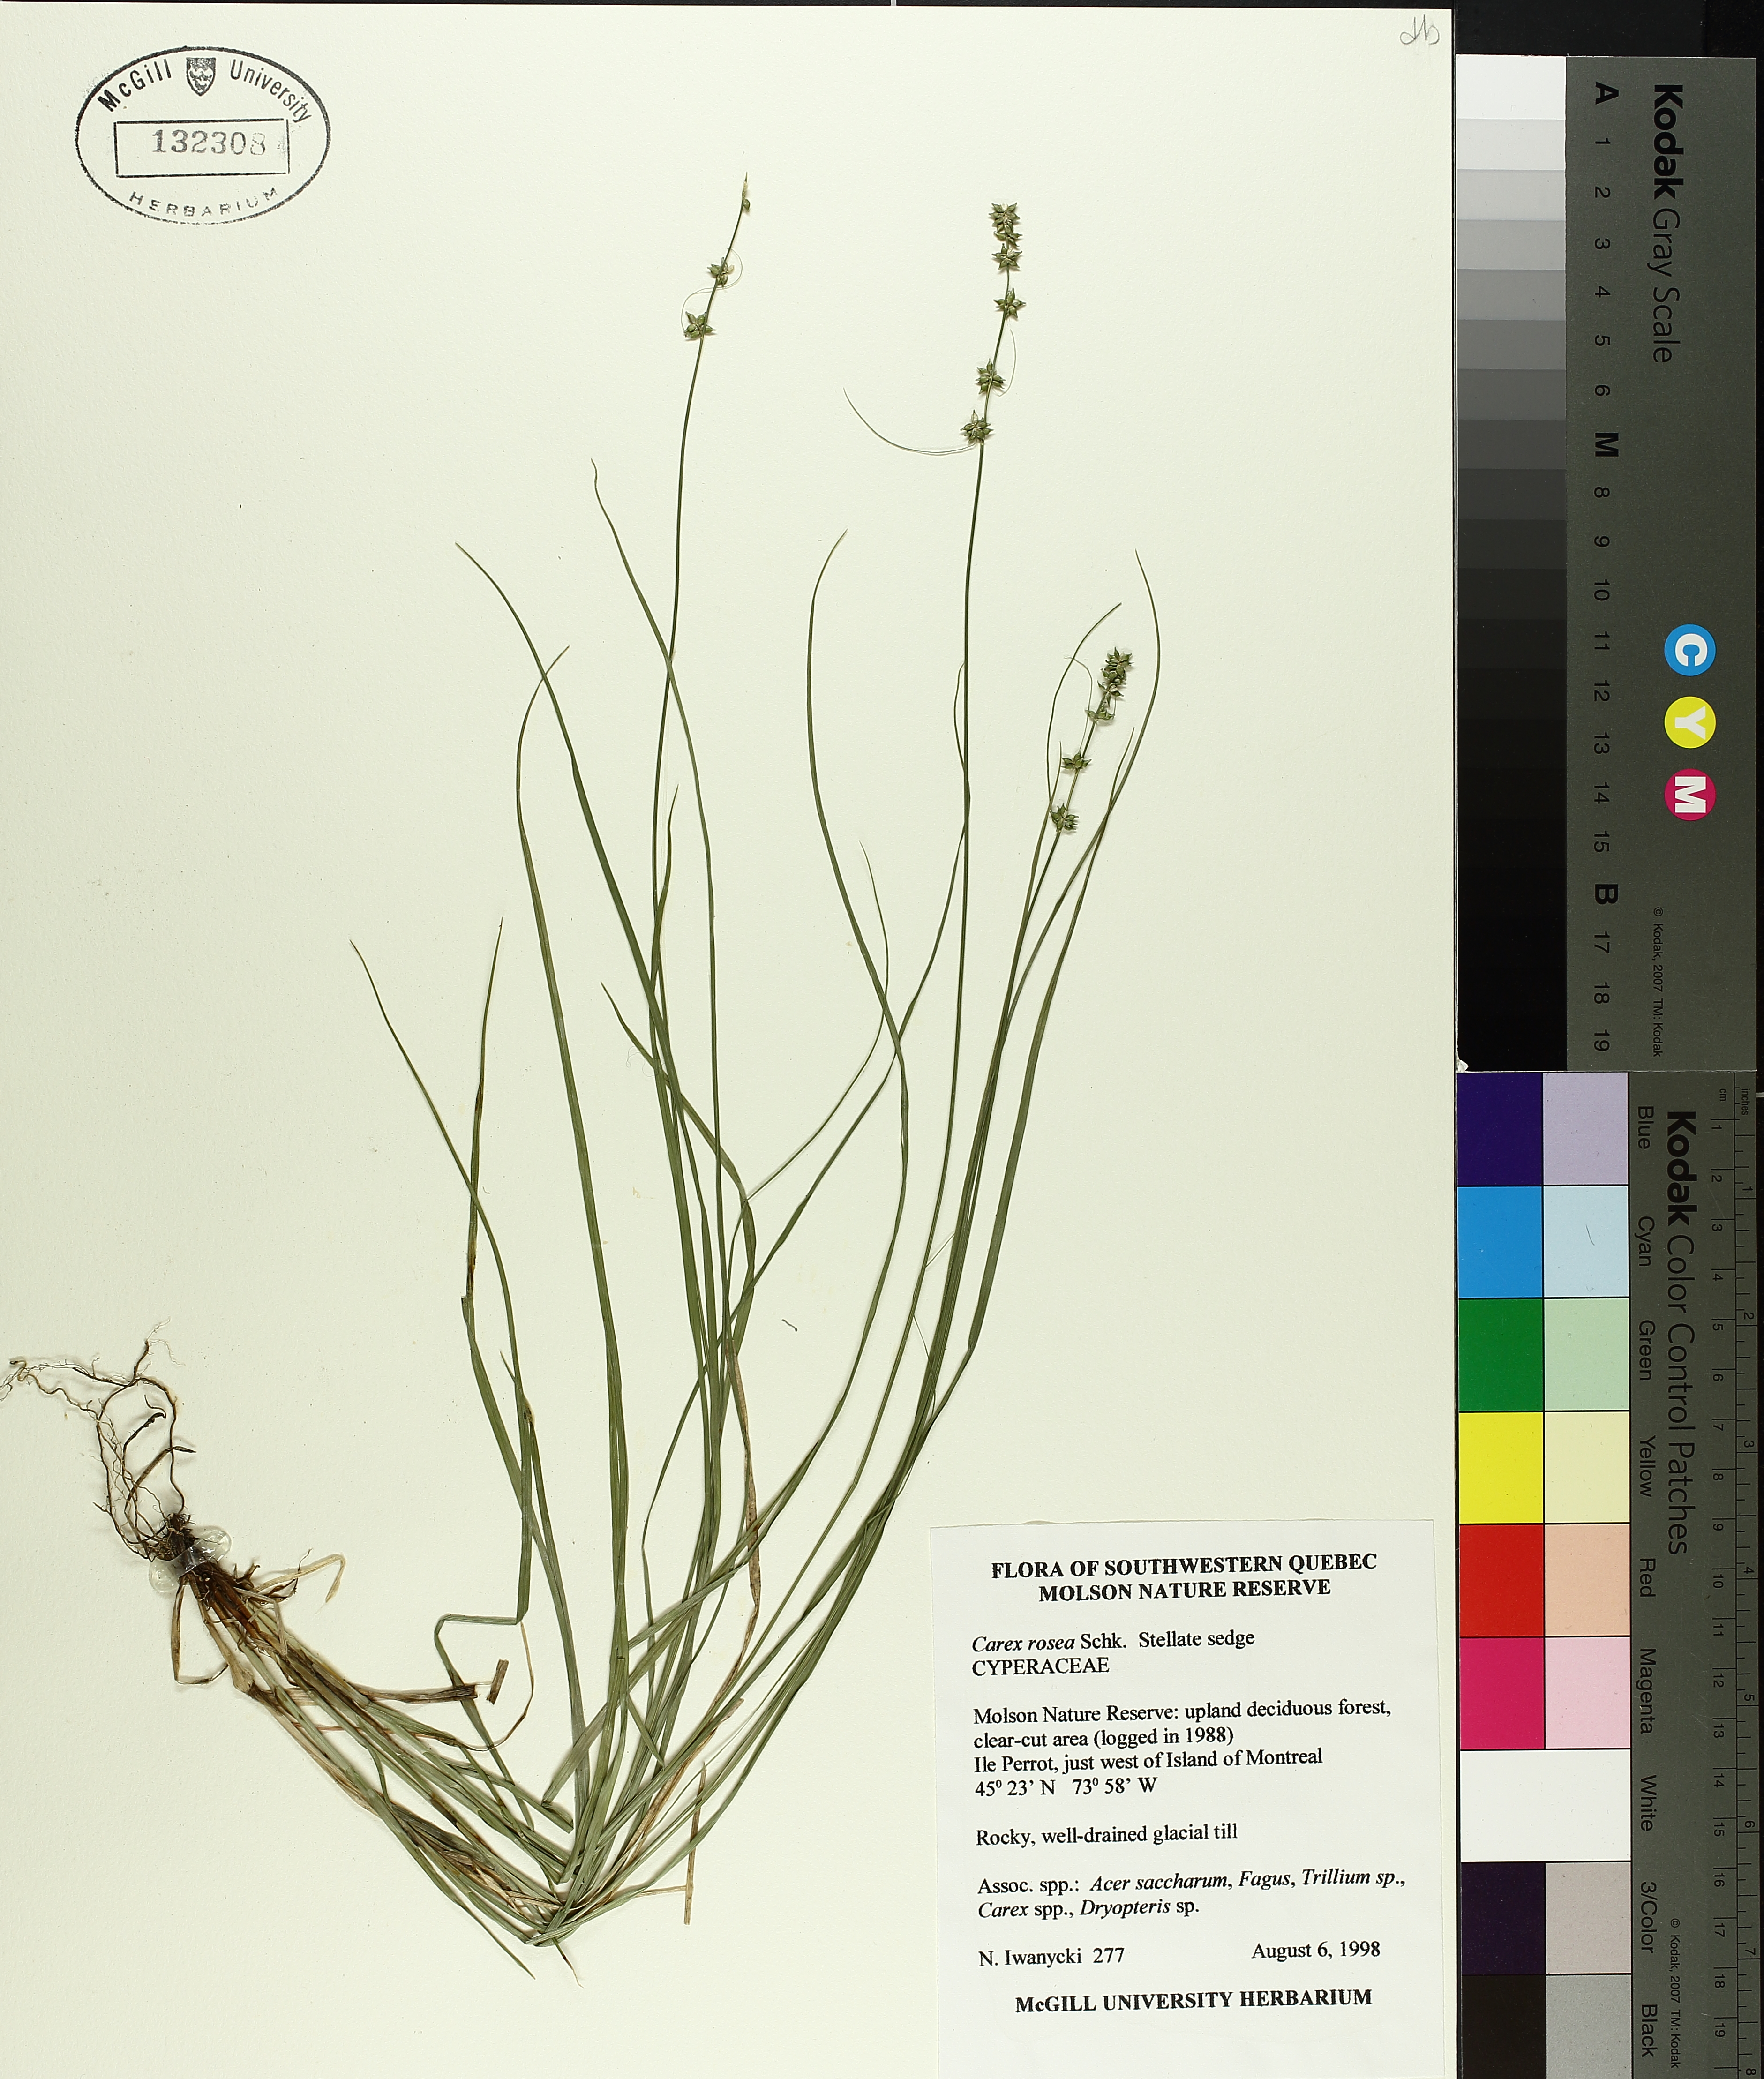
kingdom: Plantae
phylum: Tracheophyta
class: Liliopsida
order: Poales
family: Cyperaceae
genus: Carex
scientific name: Carex rosea
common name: Curly-styled wood sedge
